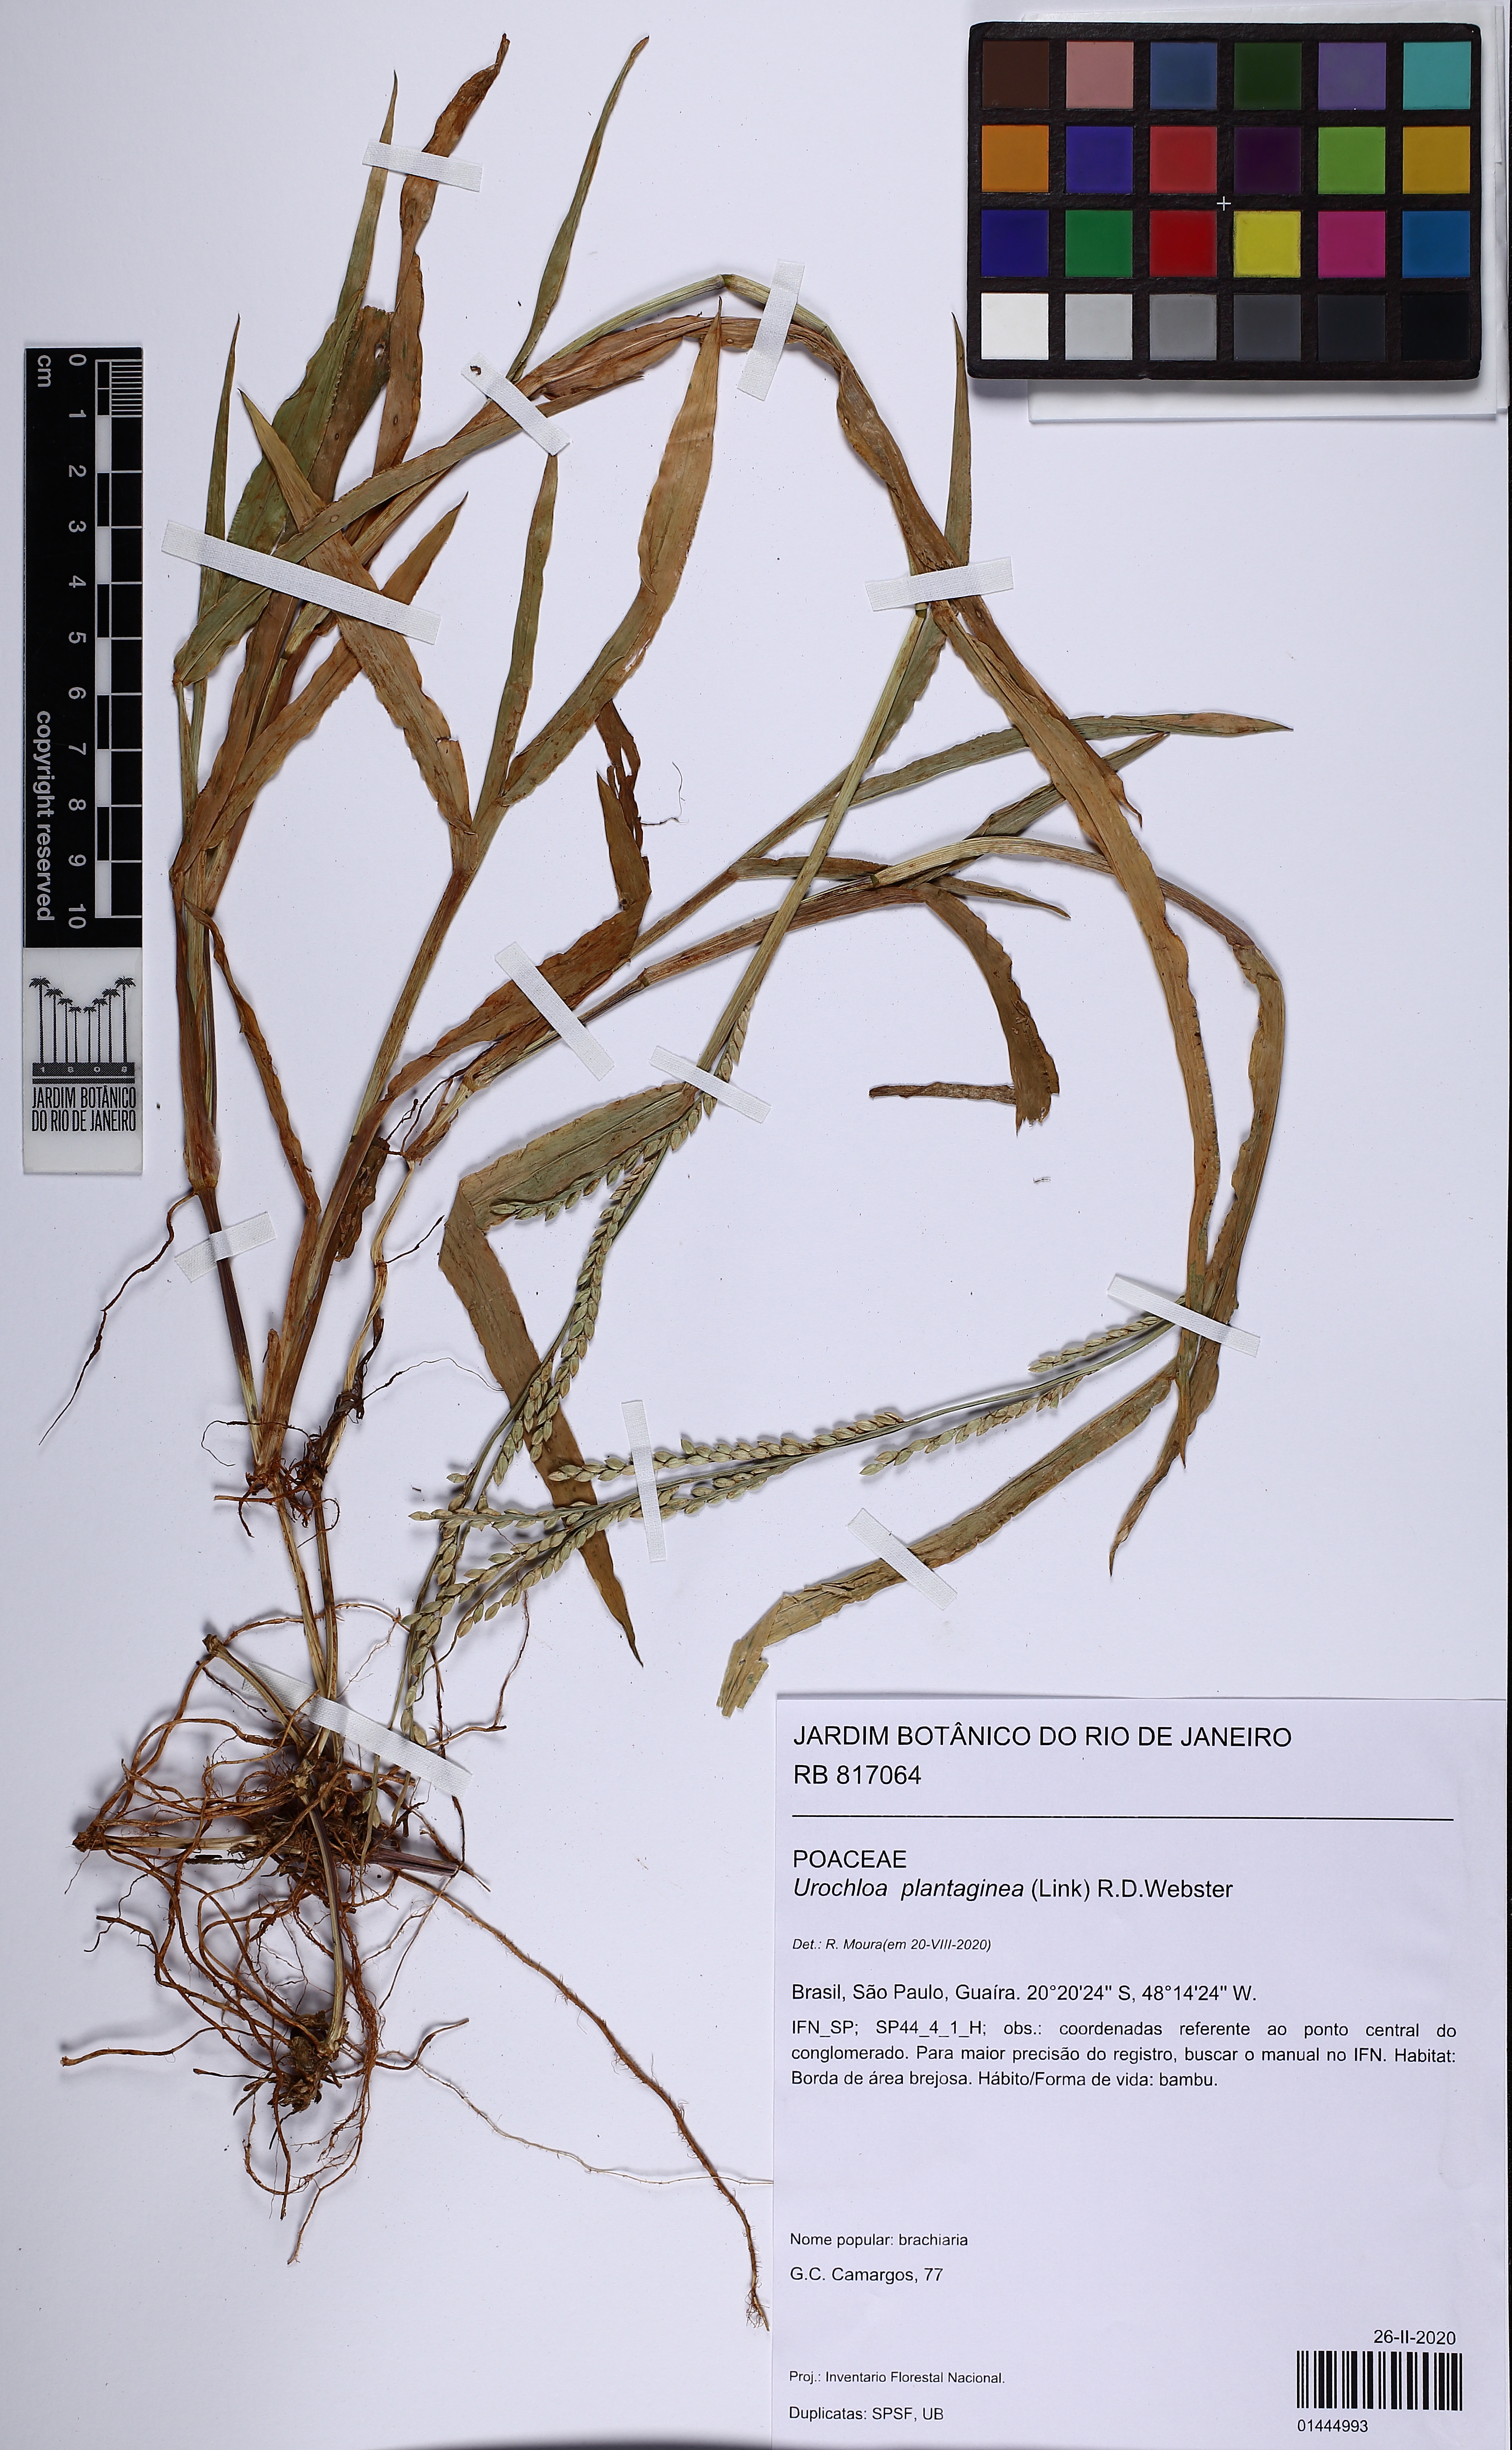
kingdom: Plantae
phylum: Tracheophyta
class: Liliopsida
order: Poales
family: Poaceae
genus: Urochloa
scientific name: Urochloa plantaginea
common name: Plantain signalgrass
